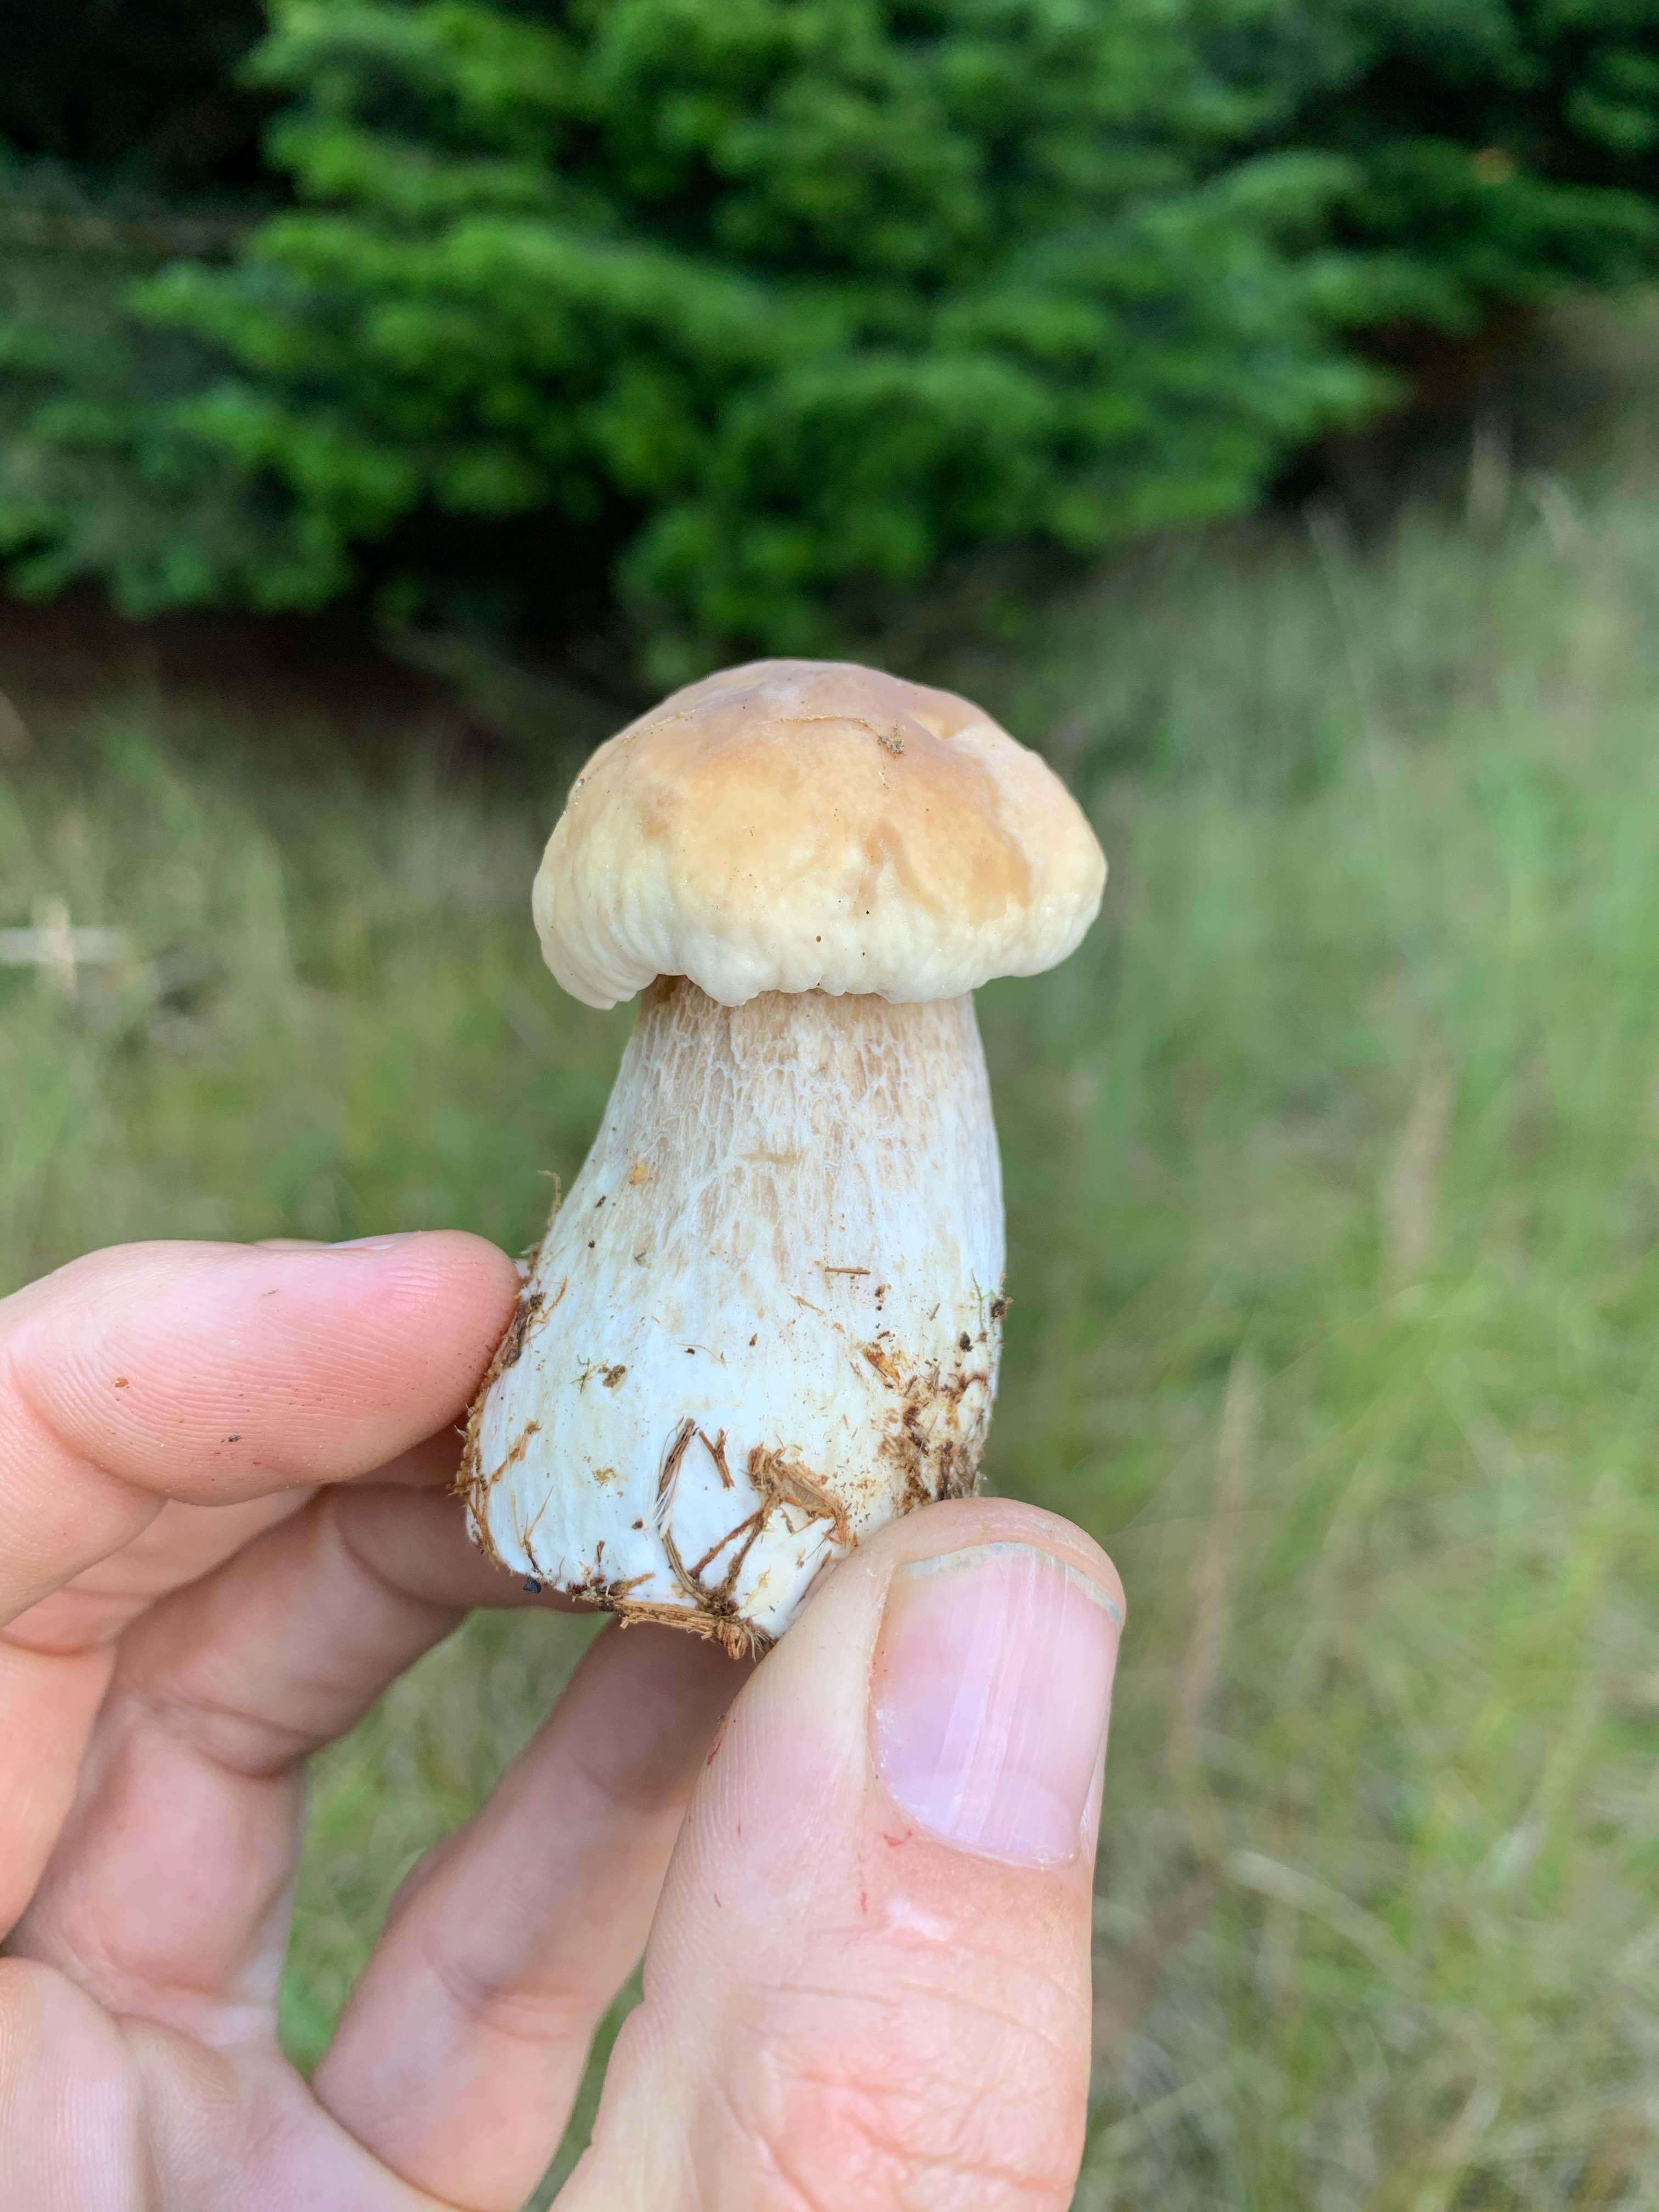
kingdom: Fungi
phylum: Basidiomycota
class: Agaricomycetes
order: Boletales
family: Boletaceae
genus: Boletus
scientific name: Boletus edulis
